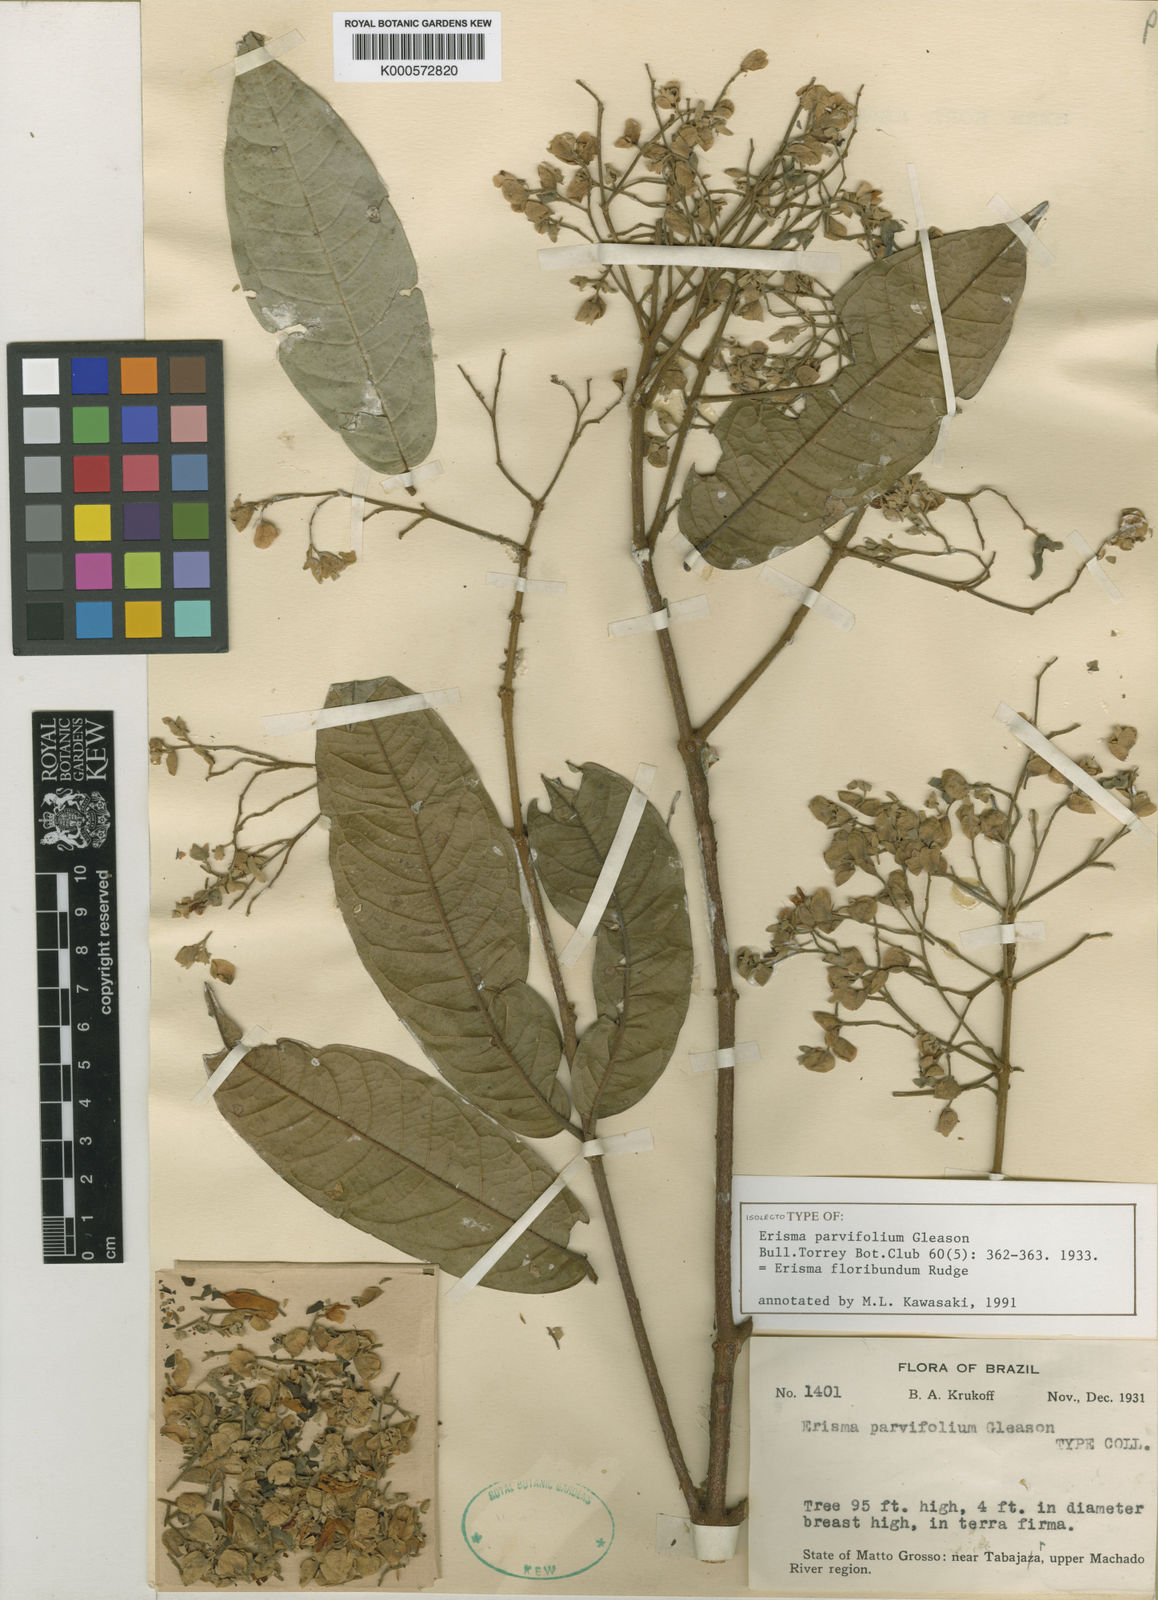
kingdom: Plantae
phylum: Tracheophyta
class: Magnoliopsida
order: Myrtales
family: Vochysiaceae
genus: Erisma
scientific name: Erisma floribundum
